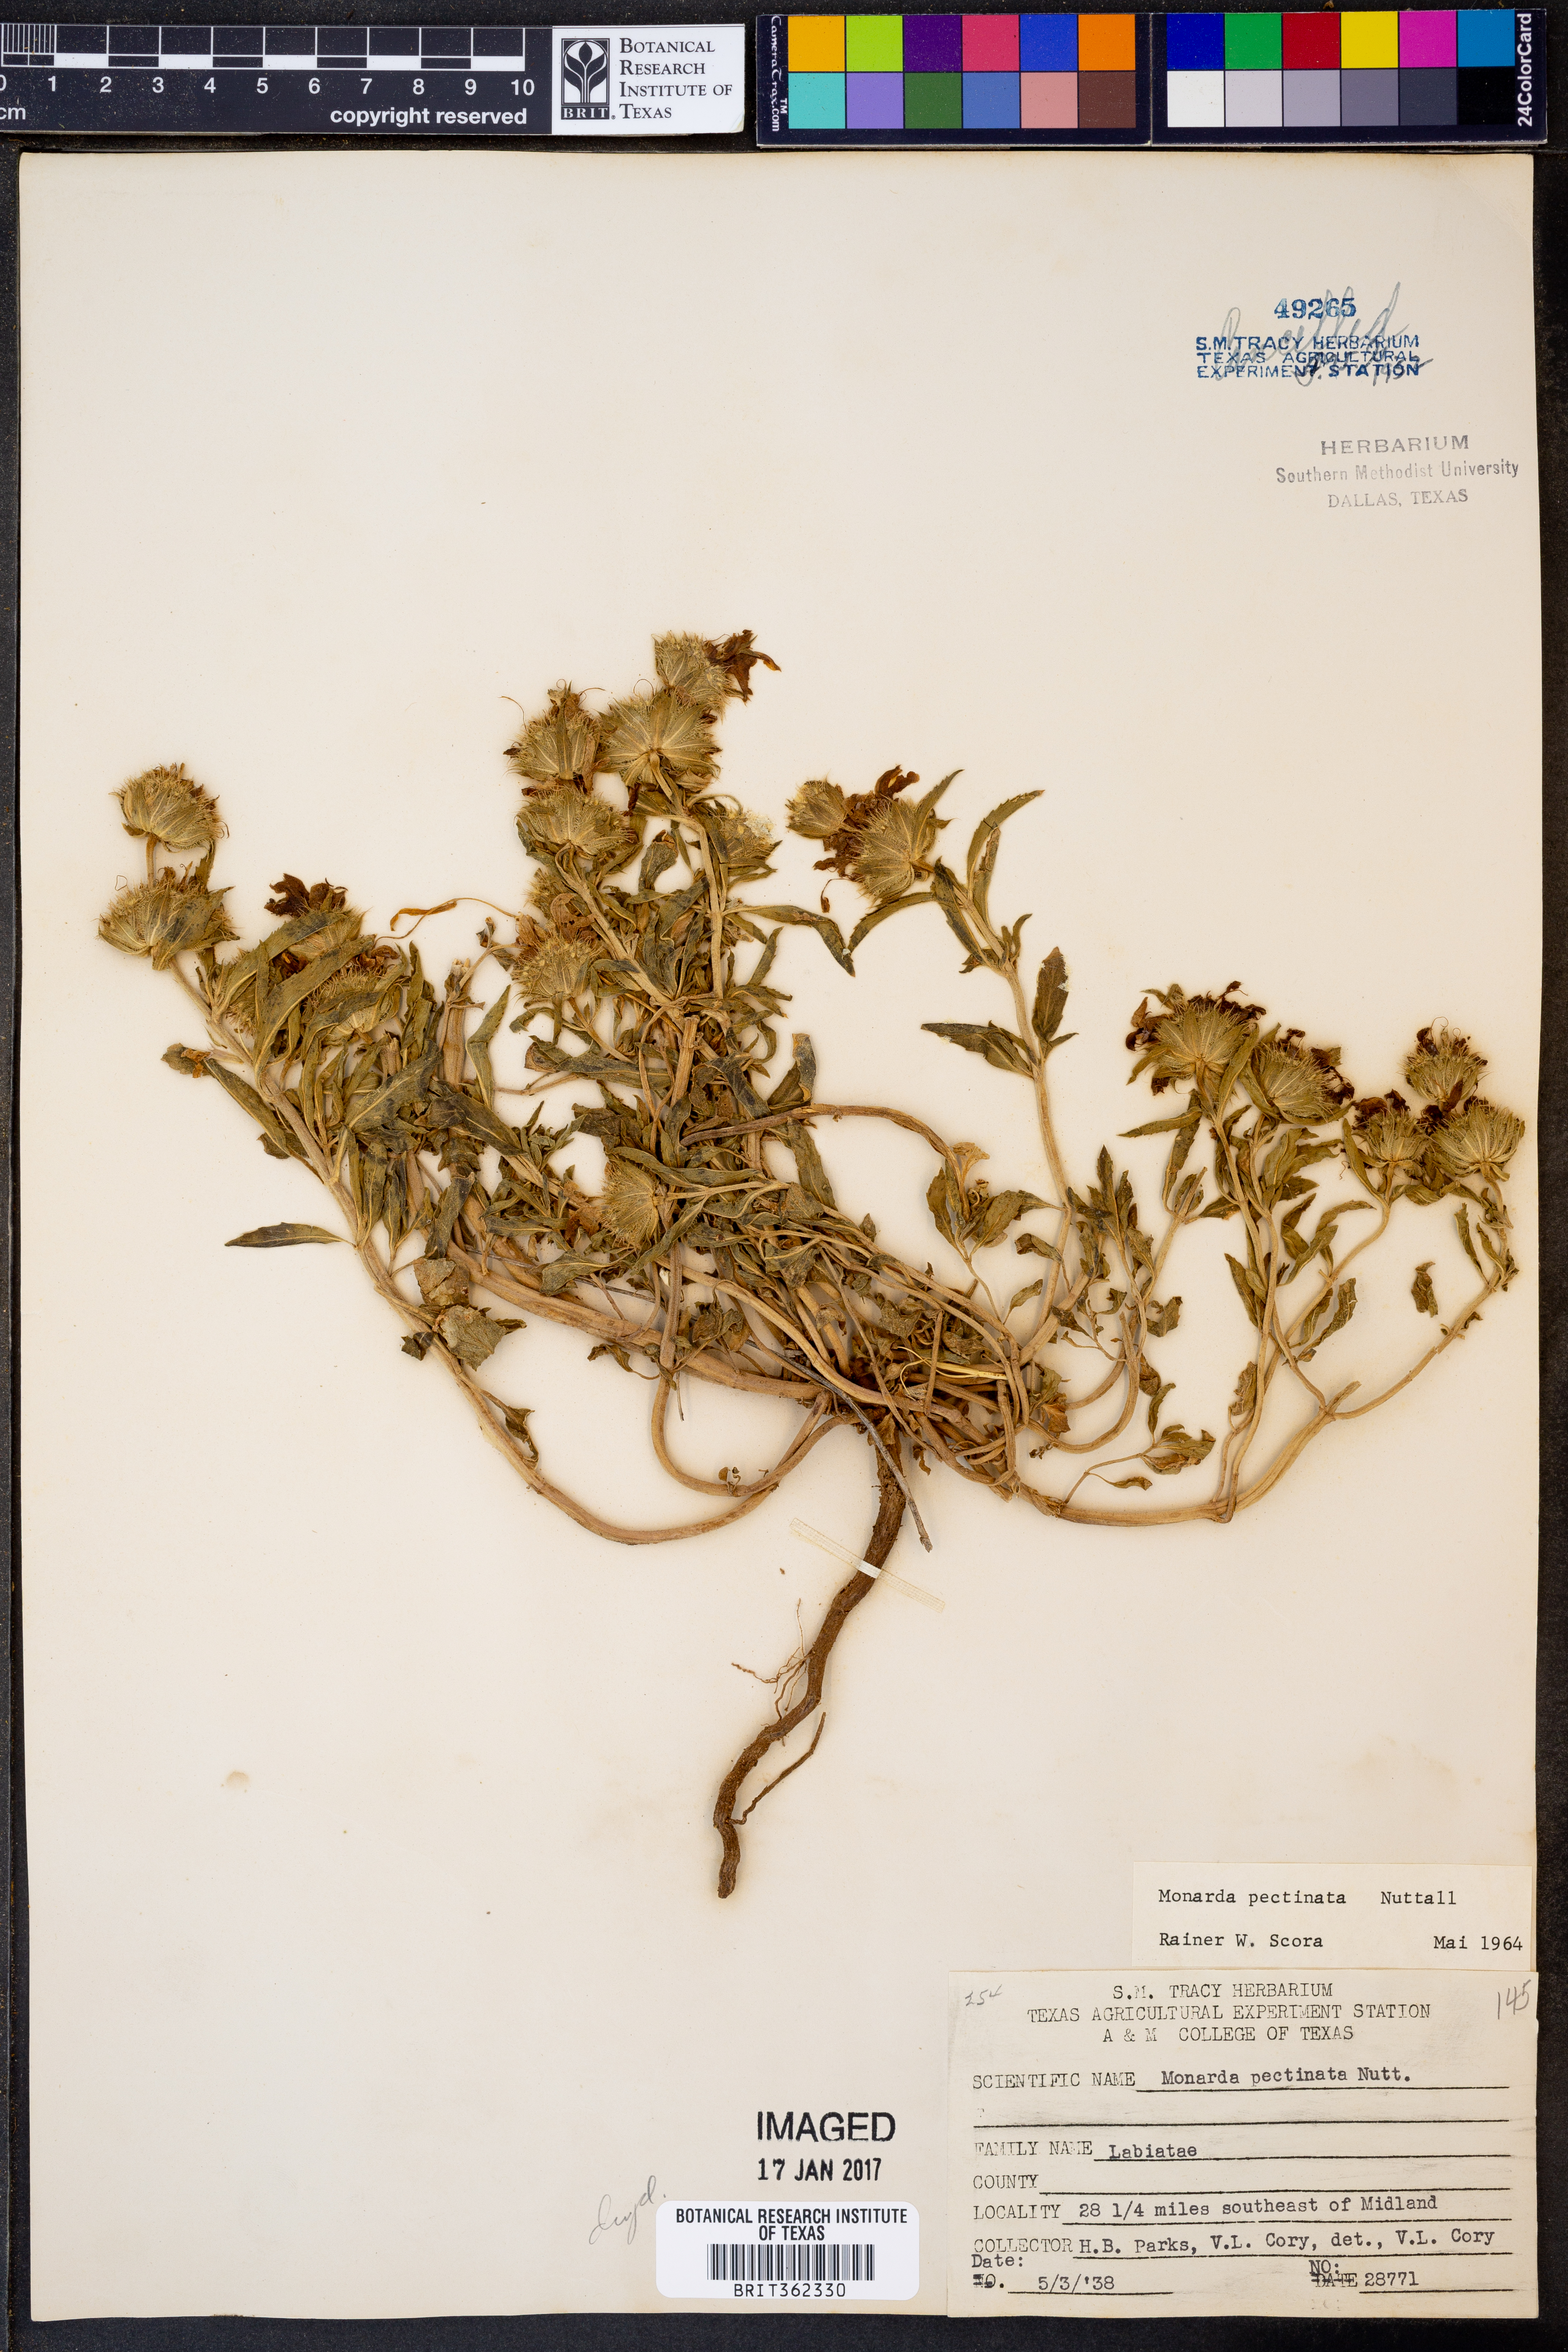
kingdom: Plantae
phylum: Tracheophyta
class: Magnoliopsida
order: Lamiales
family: Lamiaceae
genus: Monarda
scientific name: Monarda pectinata
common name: Plains beebalm
